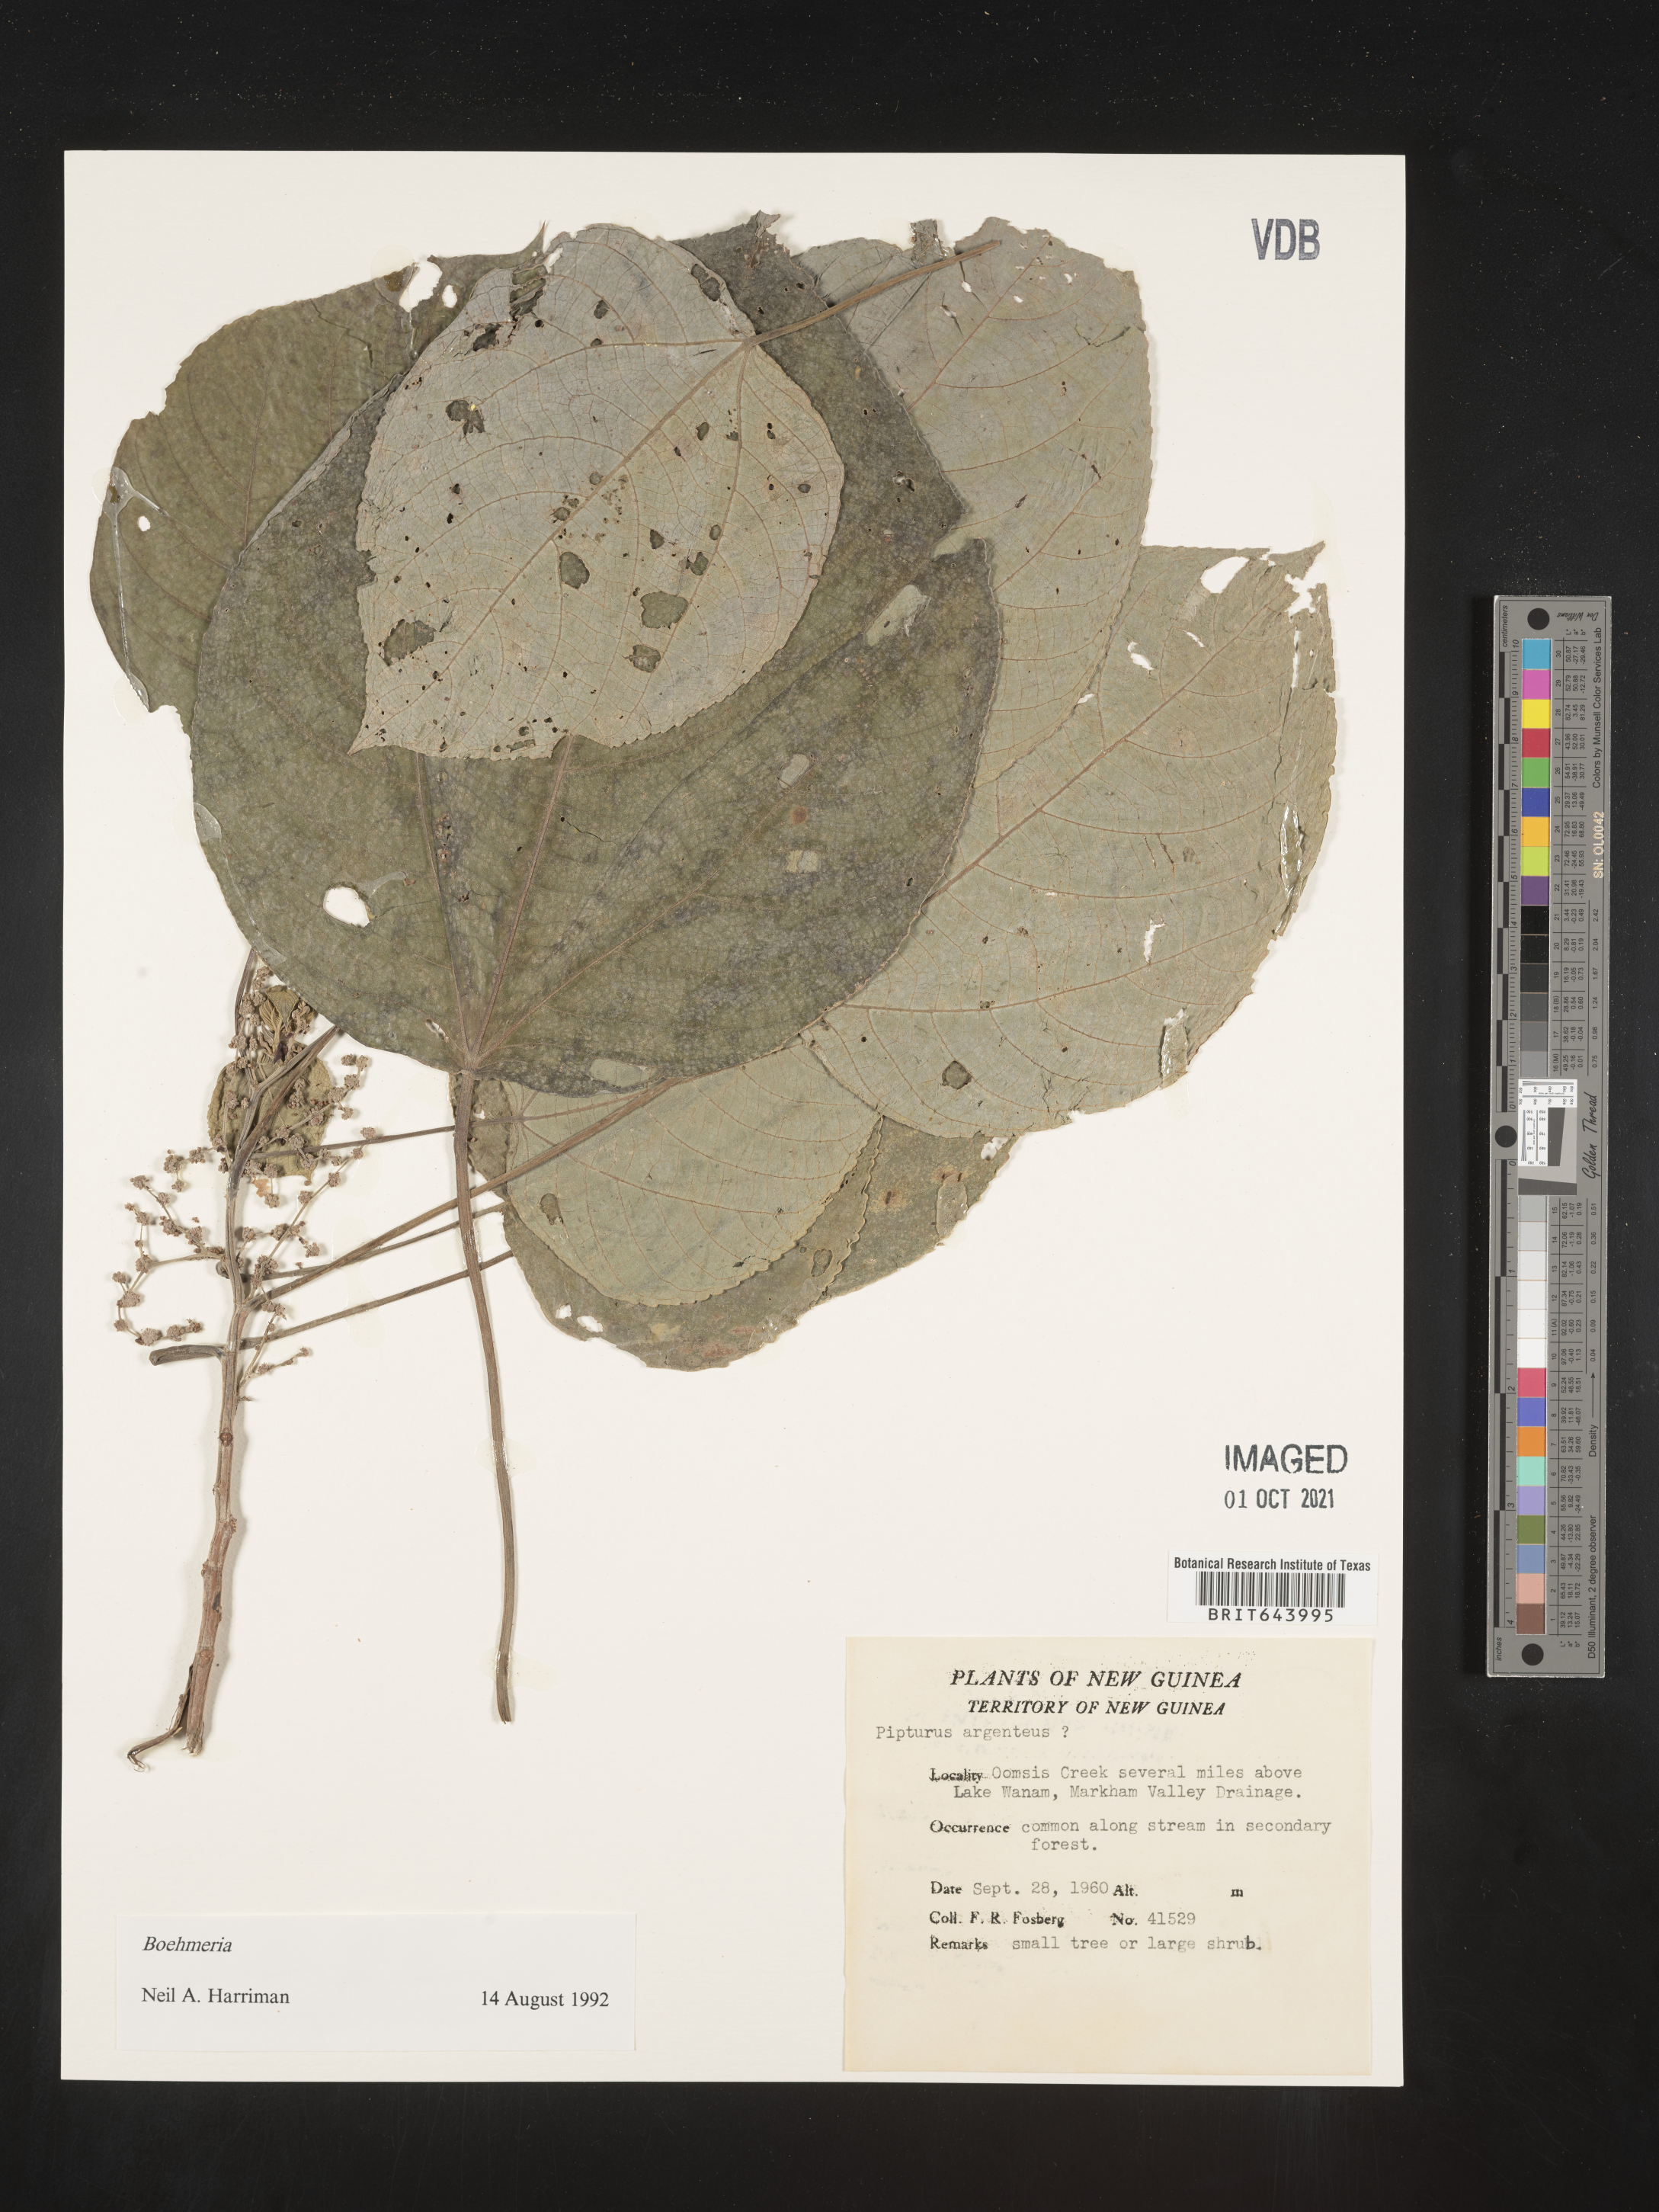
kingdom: Plantae
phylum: Tracheophyta
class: Magnoliopsida
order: Rosales
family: Urticaceae
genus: Boehmeria
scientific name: Boehmeria
